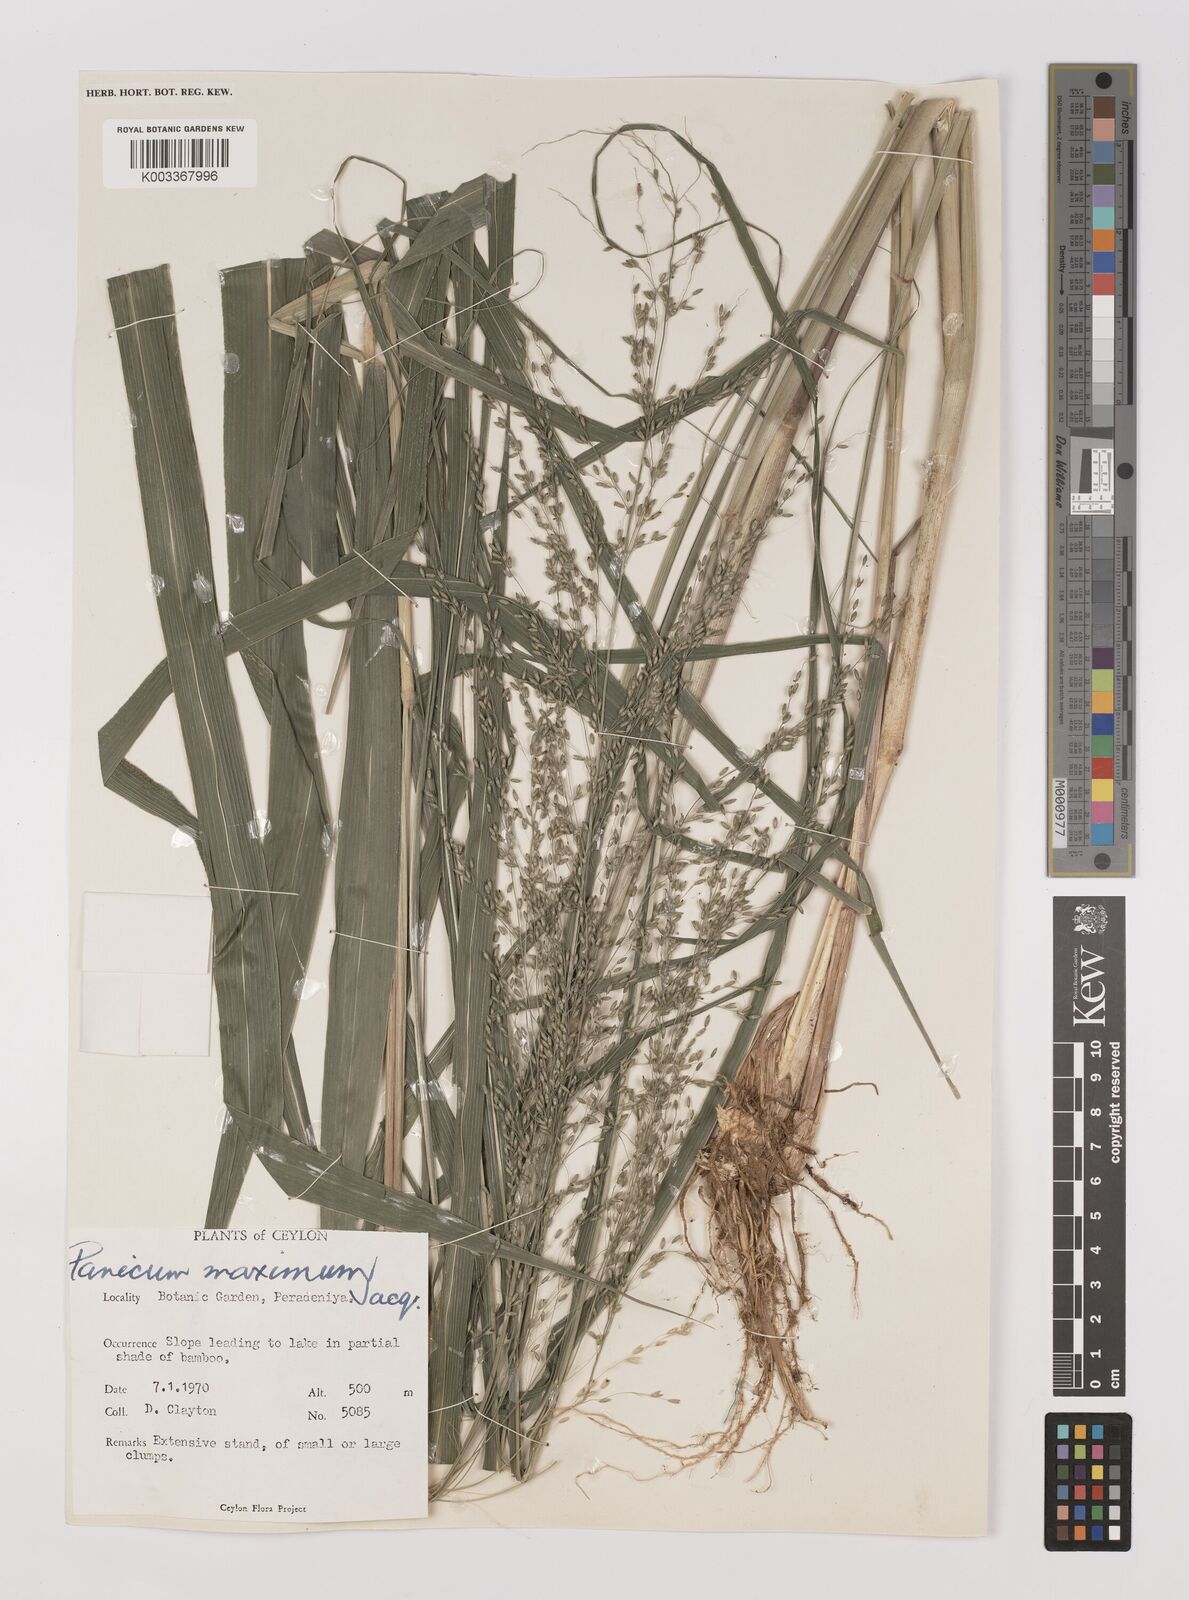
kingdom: Plantae
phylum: Tracheophyta
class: Liliopsida
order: Poales
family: Poaceae
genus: Megathyrsus
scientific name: Megathyrsus maximus
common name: Guineagrass
